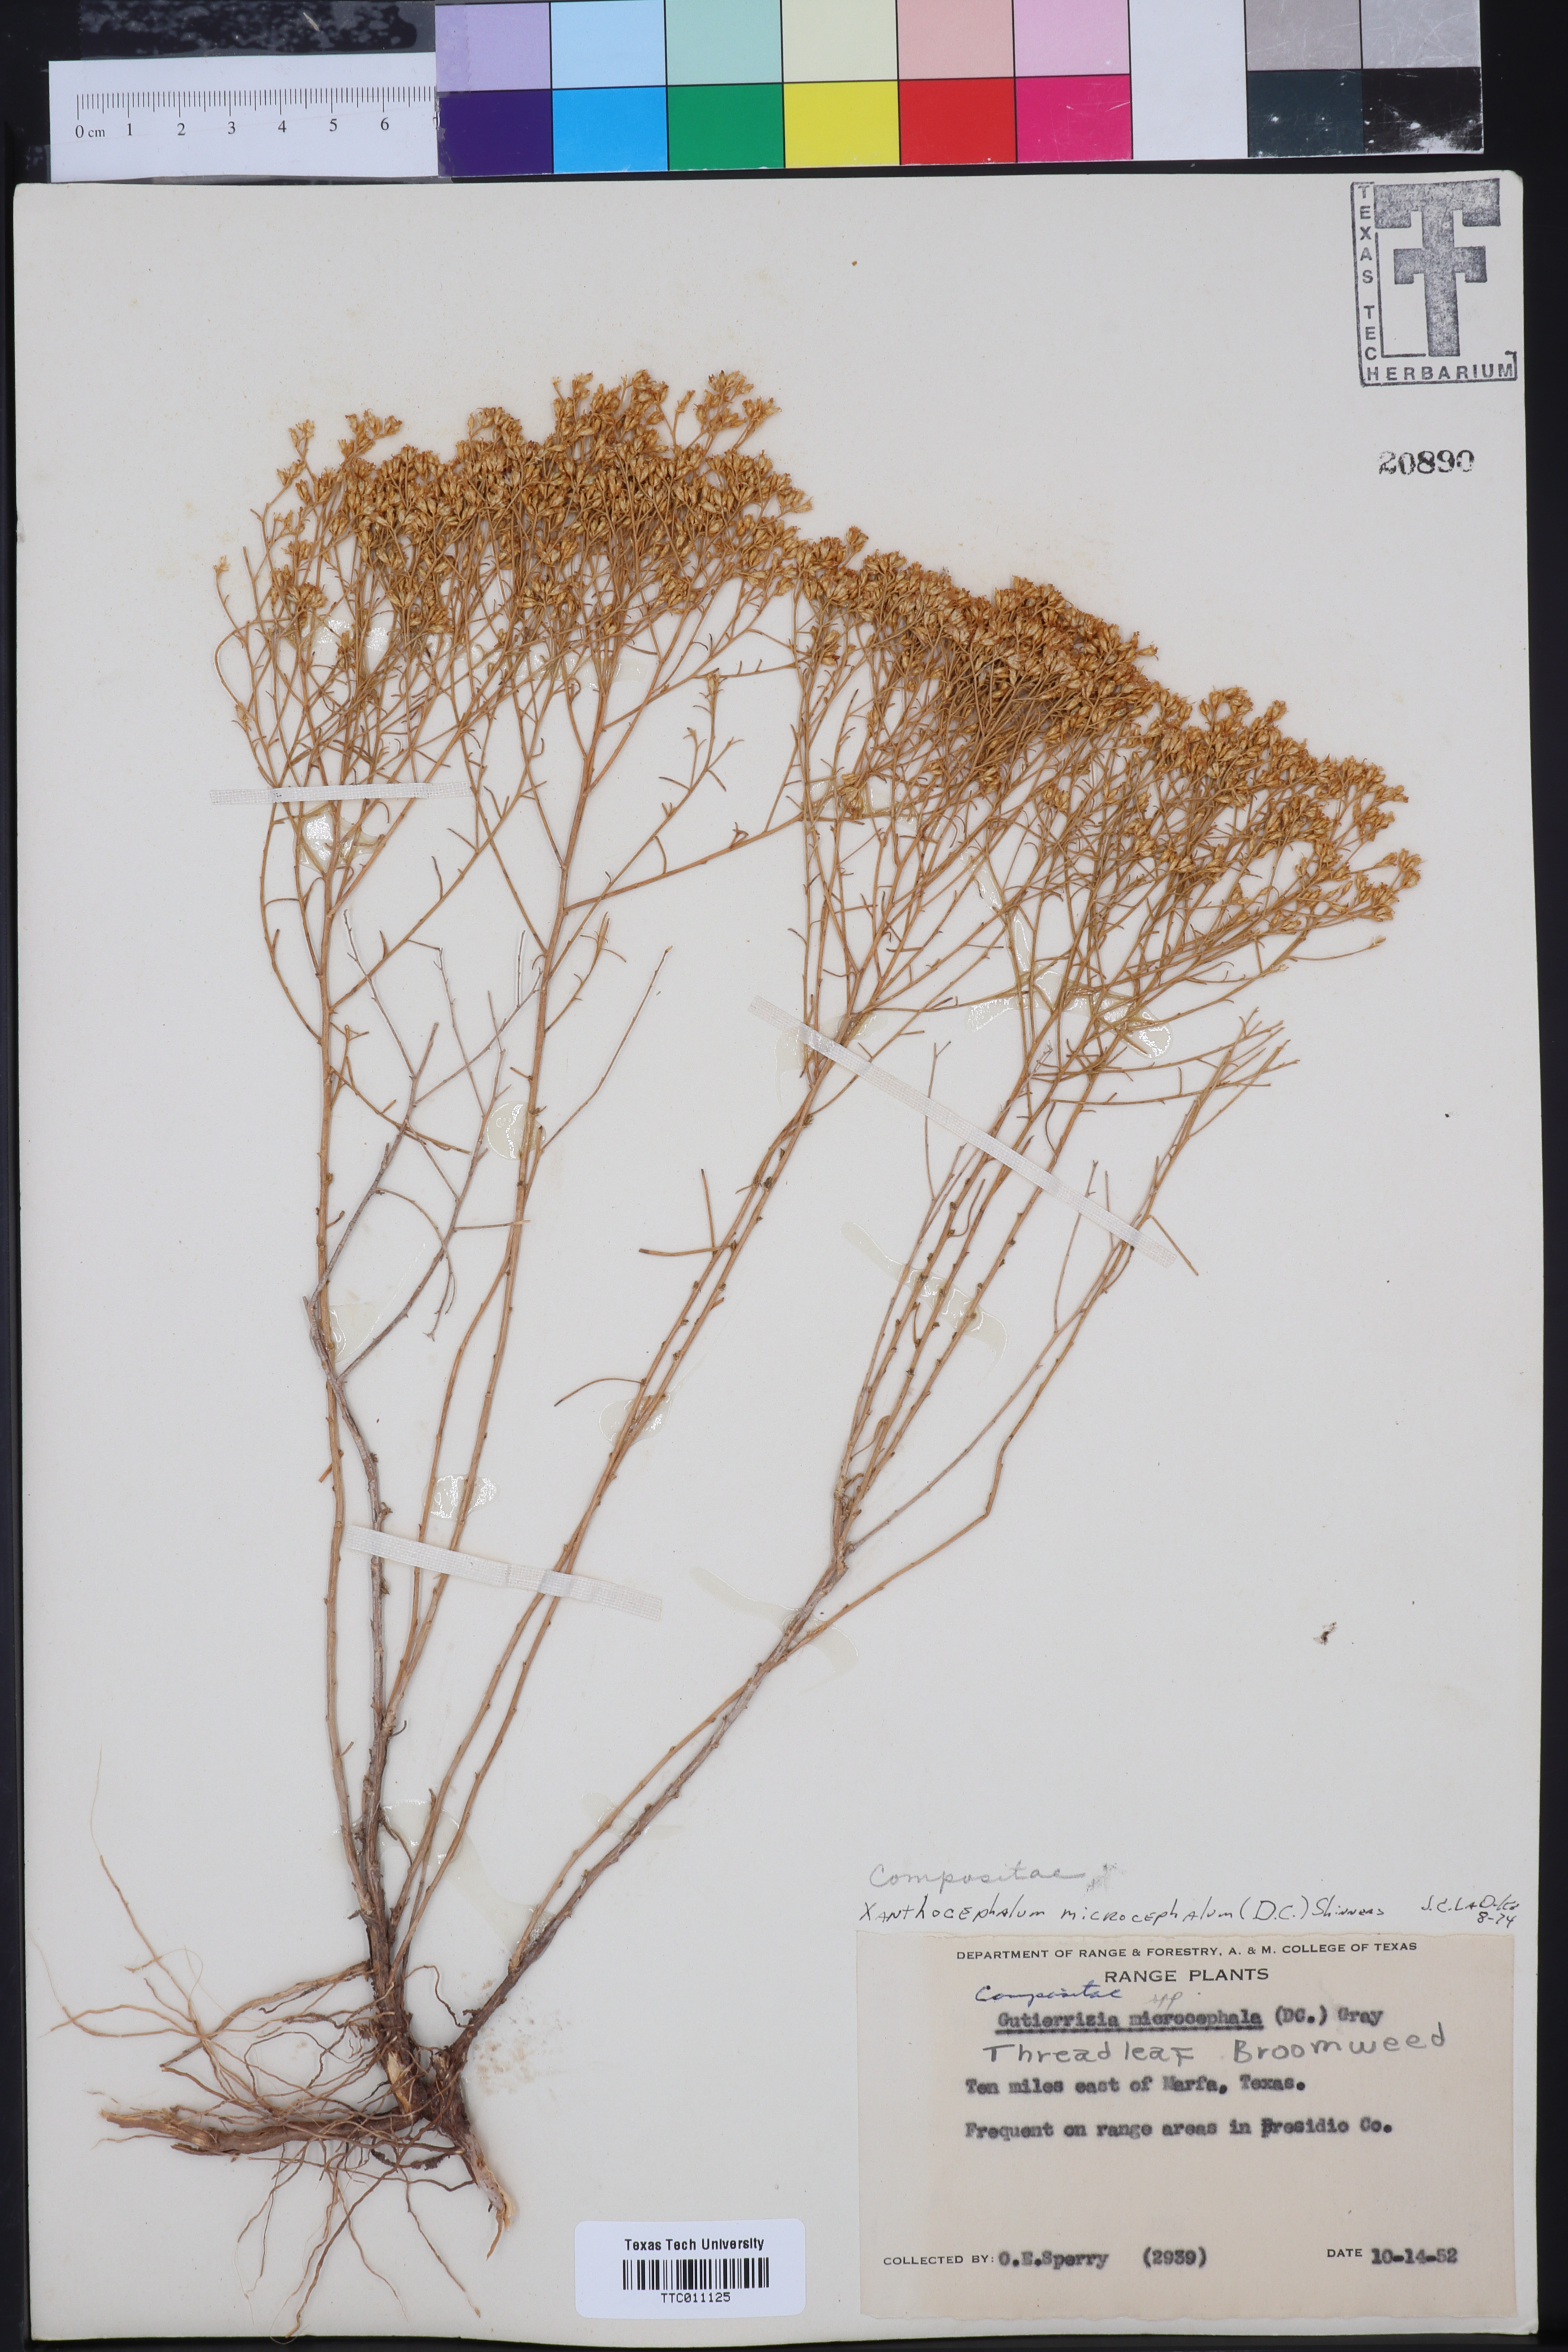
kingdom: Plantae
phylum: Tracheophyta
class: Magnoliopsida
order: Asterales
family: Asteraceae
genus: Gutierrezia
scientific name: Gutierrezia microcephala
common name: Thread snakeweed
